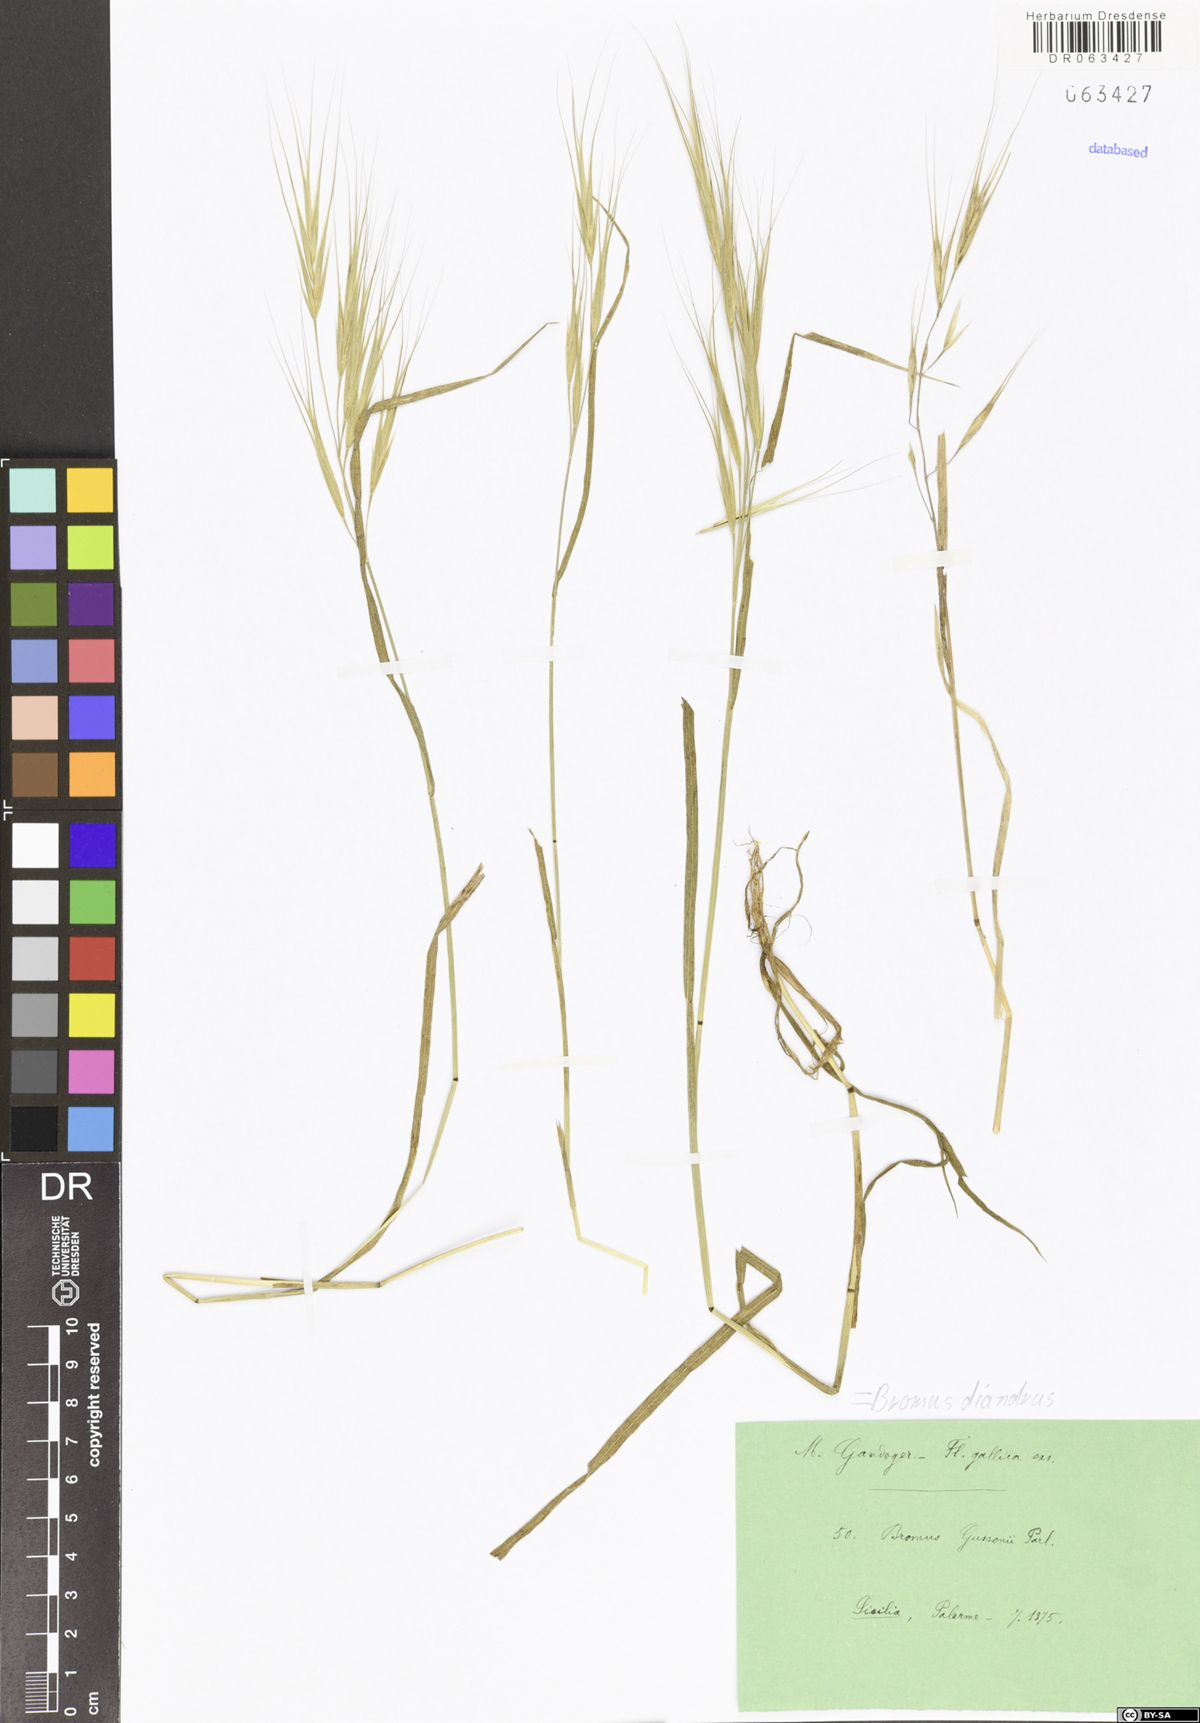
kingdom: Plantae
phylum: Tracheophyta
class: Liliopsida
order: Poales
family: Poaceae
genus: Bromus
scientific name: Bromus diandrus
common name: Ripgut brome
